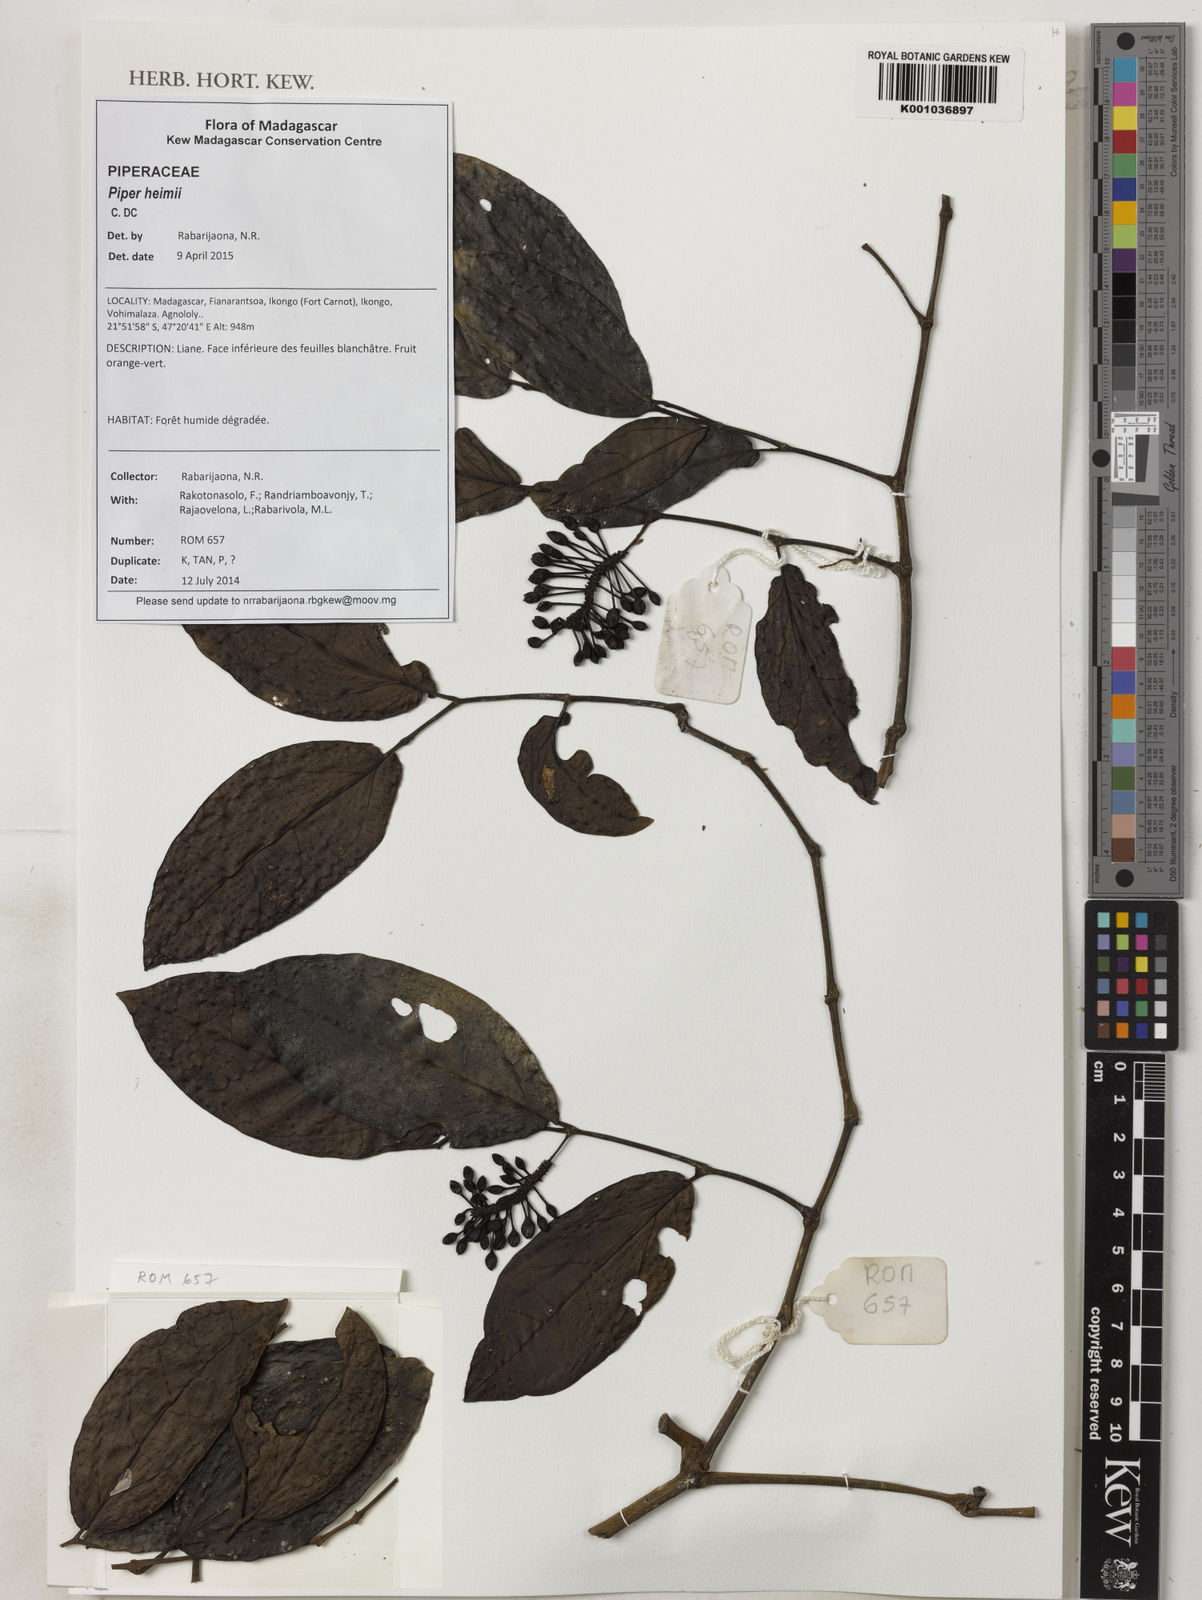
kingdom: Plantae
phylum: Tracheophyta
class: Magnoliopsida
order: Piperales
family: Piperaceae
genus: Piper
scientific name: Piper heimii
